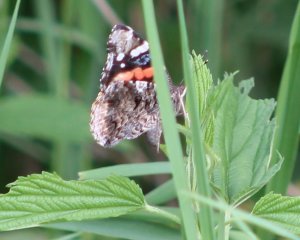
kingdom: Animalia
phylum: Arthropoda
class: Insecta
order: Lepidoptera
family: Nymphalidae
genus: Vanessa
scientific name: Vanessa atalanta
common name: Red Admiral
